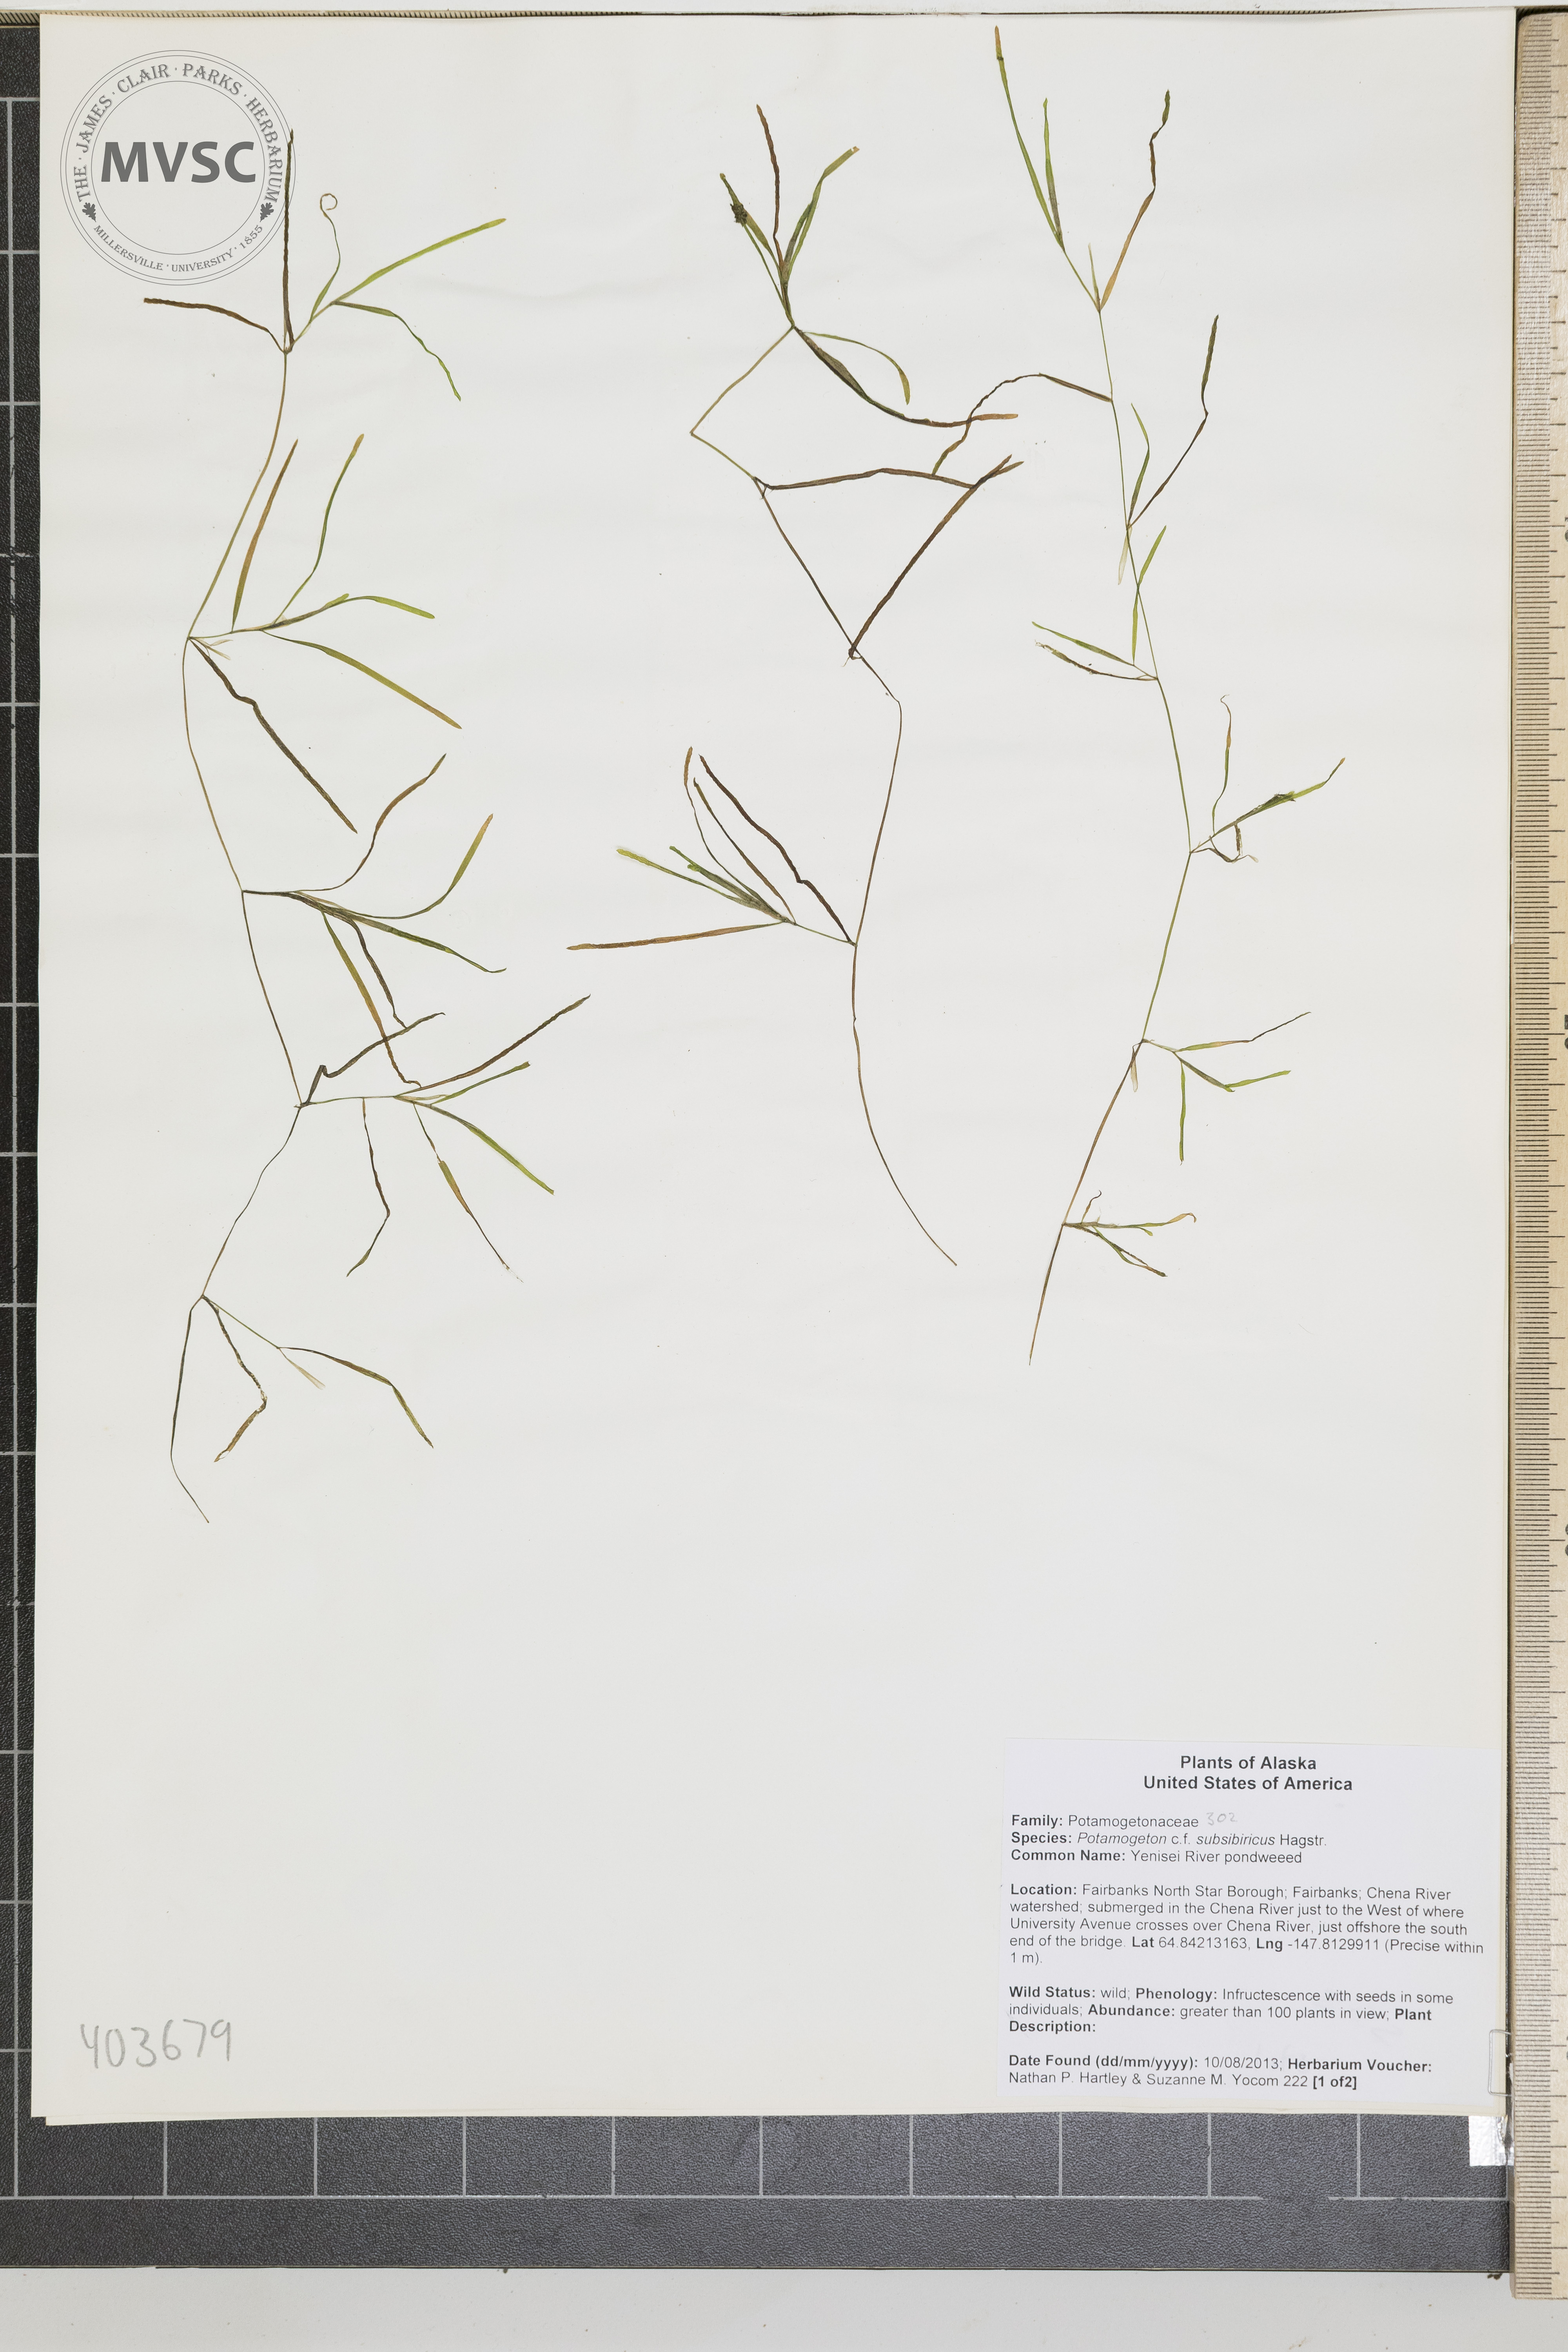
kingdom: Plantae
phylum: Tracheophyta
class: Liliopsida
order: Alismatales
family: Potamogetonaceae
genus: Potamogeton
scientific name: Potamogeton sibiricus
